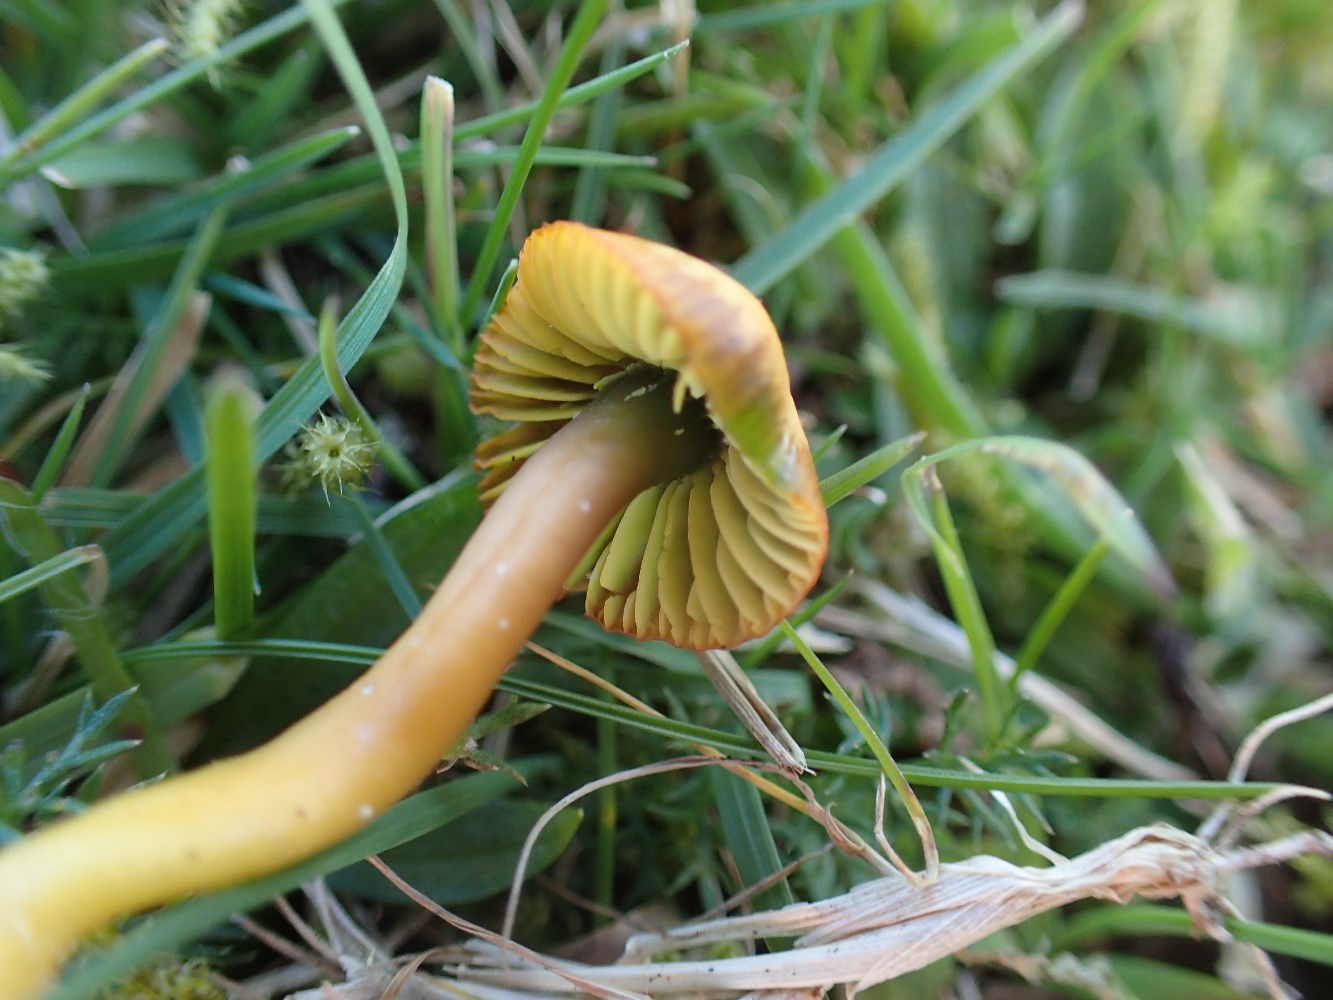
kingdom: Fungi
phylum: Basidiomycota
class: Agaricomycetes
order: Agaricales
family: Hygrophoraceae
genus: Gliophorus
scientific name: Gliophorus psittacinus
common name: papegøje-vokshat
